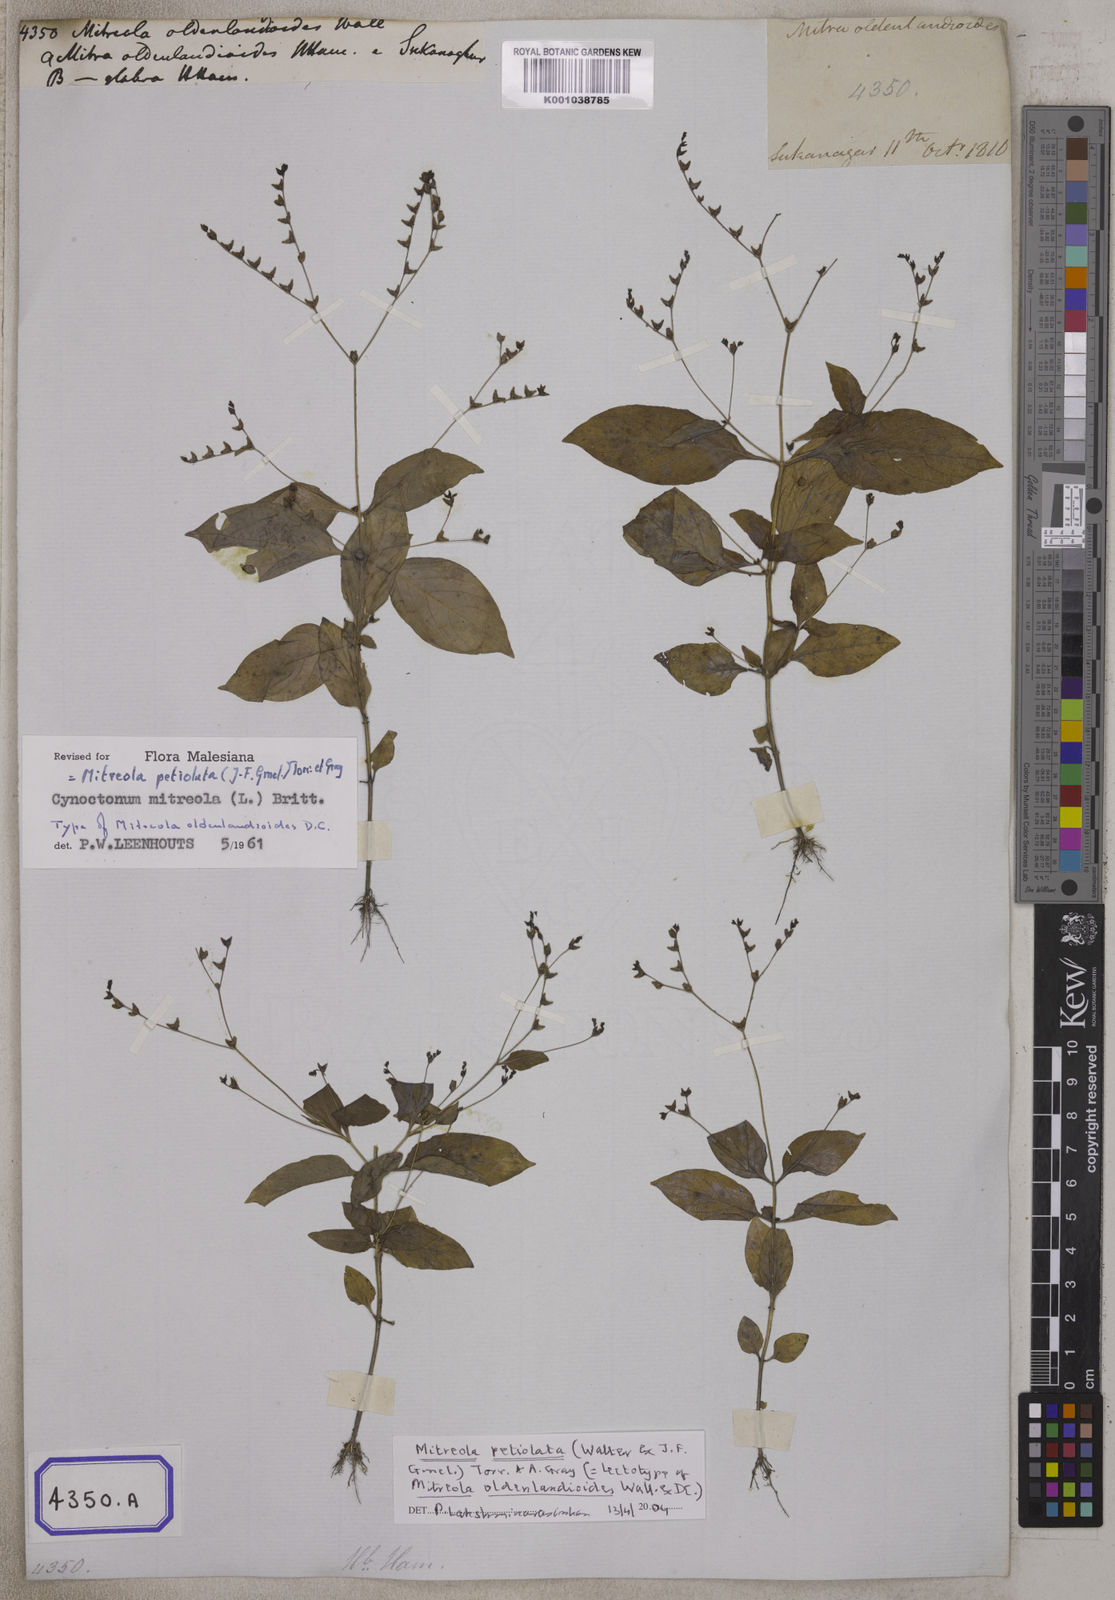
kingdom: Plantae
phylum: Tracheophyta
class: Magnoliopsida
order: Gentianales
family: Loganiaceae
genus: Mitreola
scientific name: Mitreola petiolata
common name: Lax hornpod
